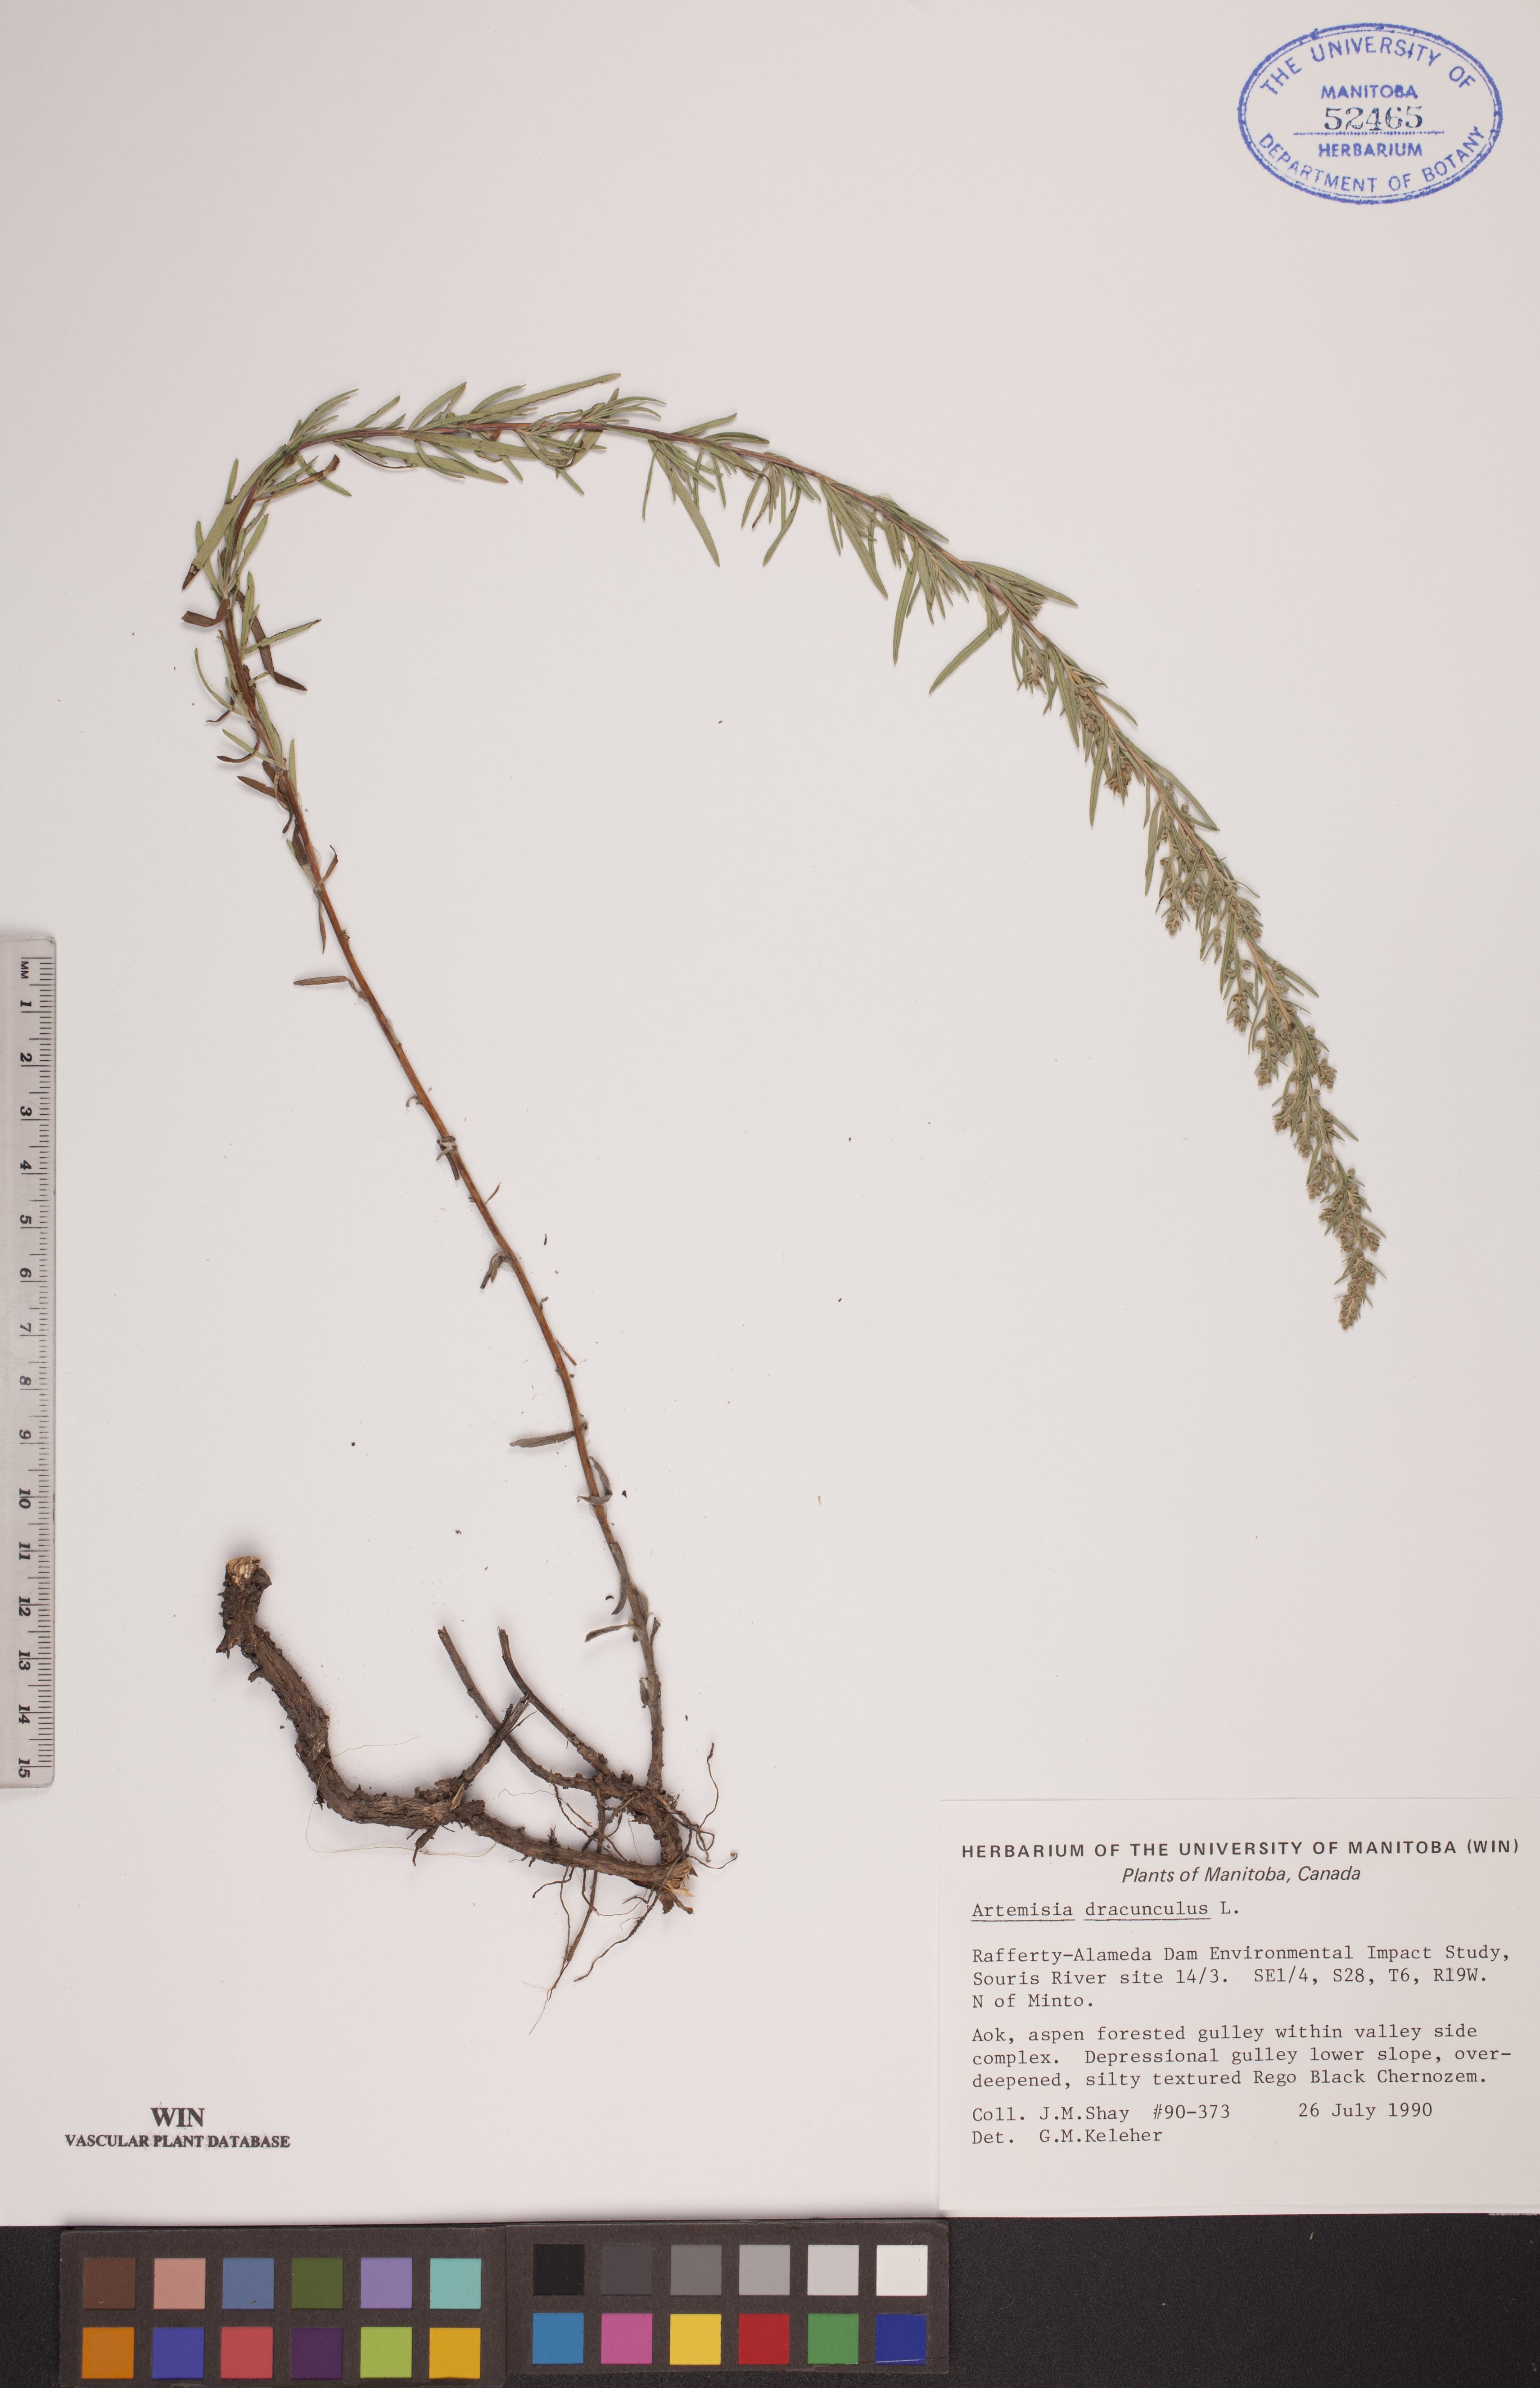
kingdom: Plantae
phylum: Tracheophyta
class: Magnoliopsida
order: Asterales
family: Asteraceae
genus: Artemisia
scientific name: Artemisia dracunculus
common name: Tarragon
